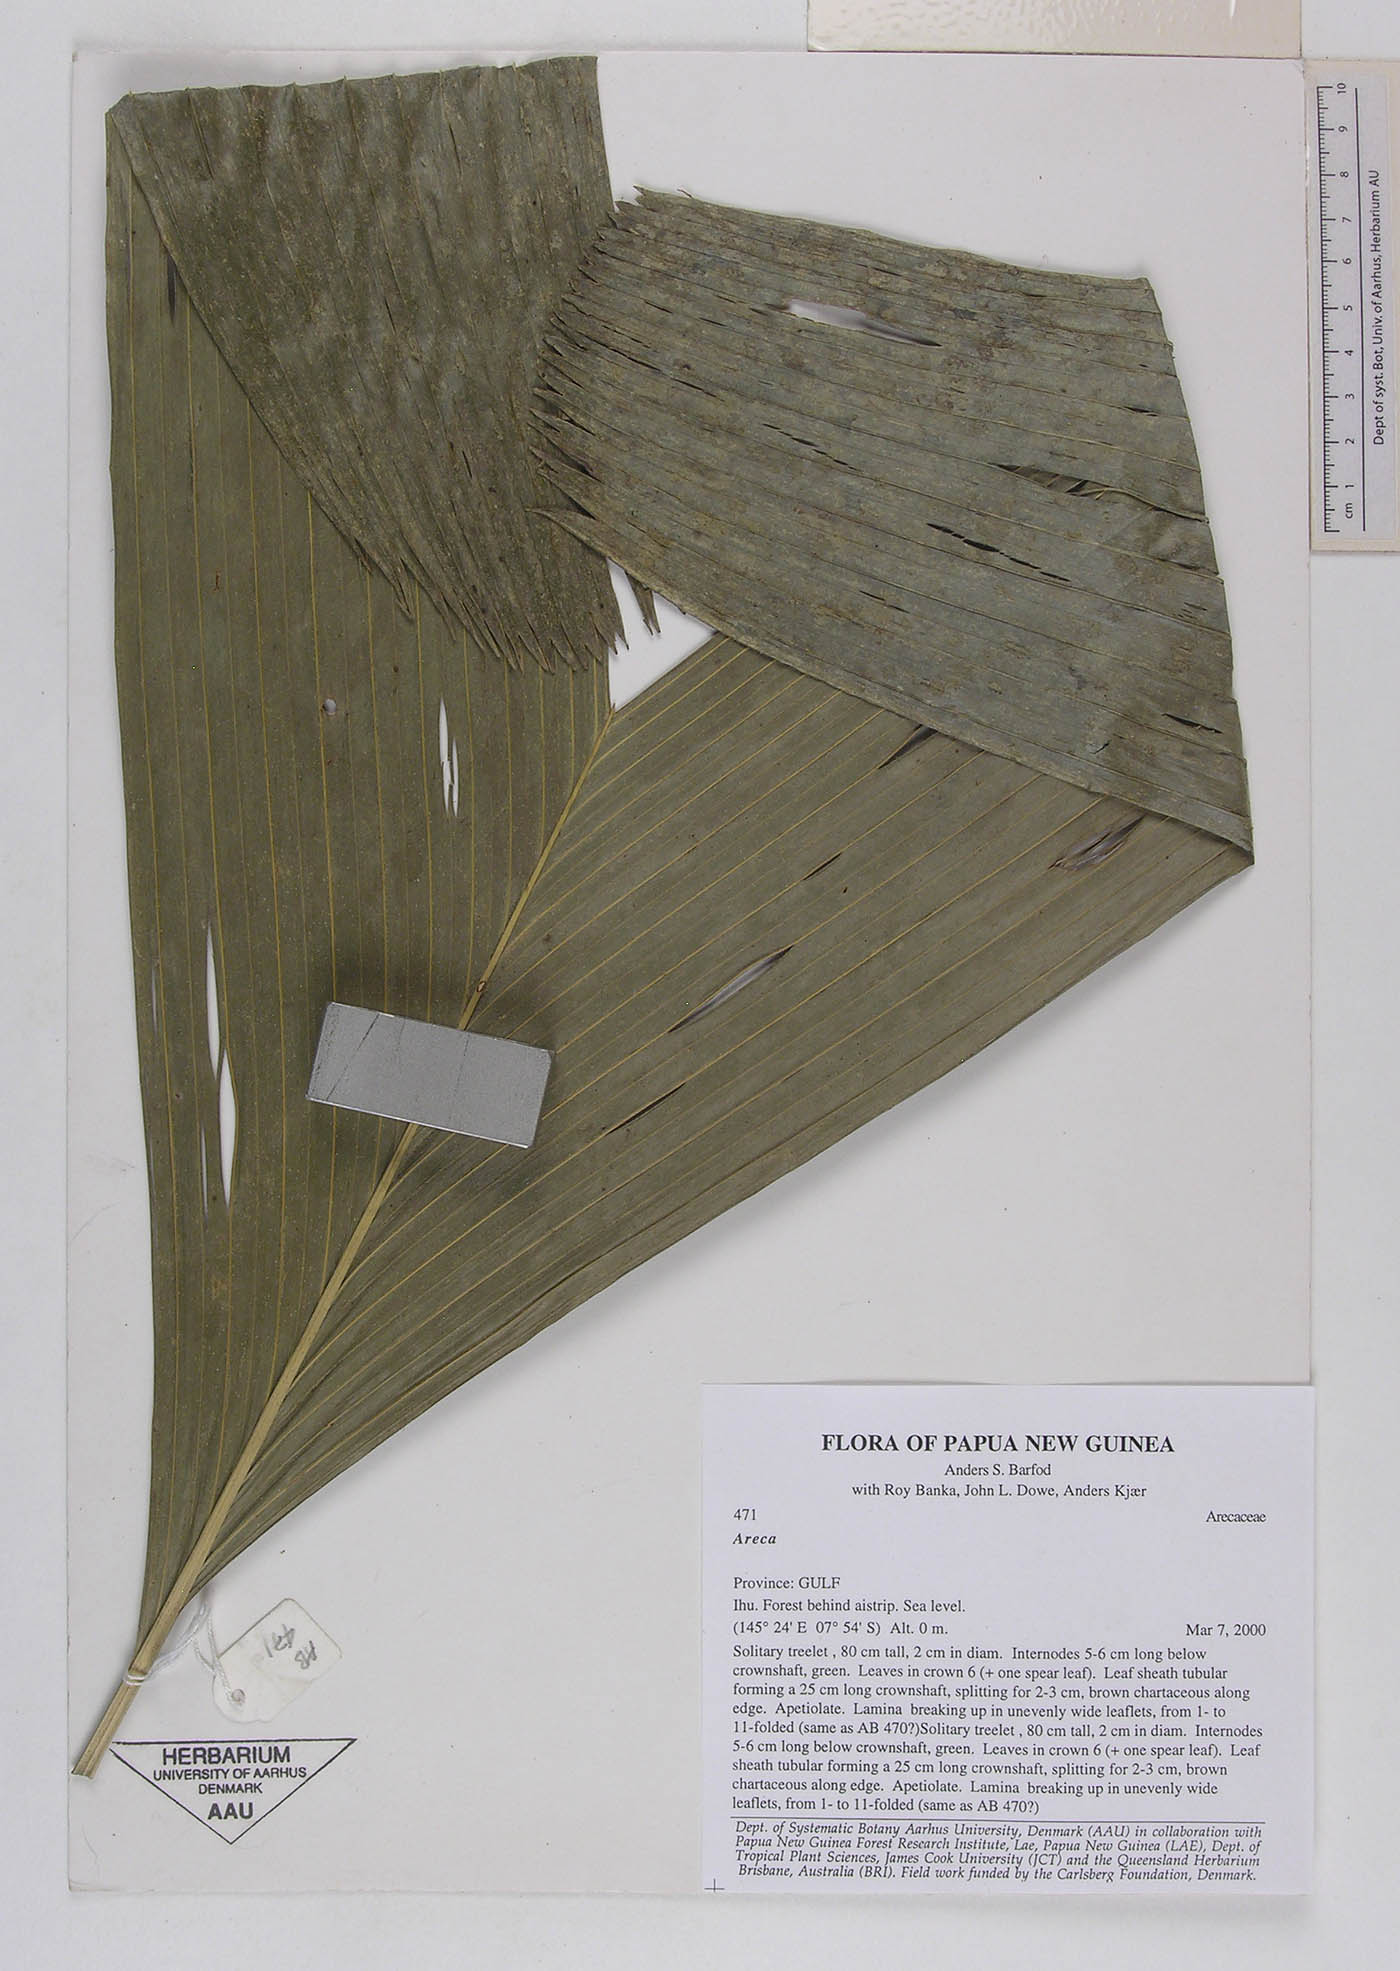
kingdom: Plantae
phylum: Tracheophyta
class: Liliopsida
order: Arecales
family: Arecaceae
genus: Areca
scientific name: Areca
